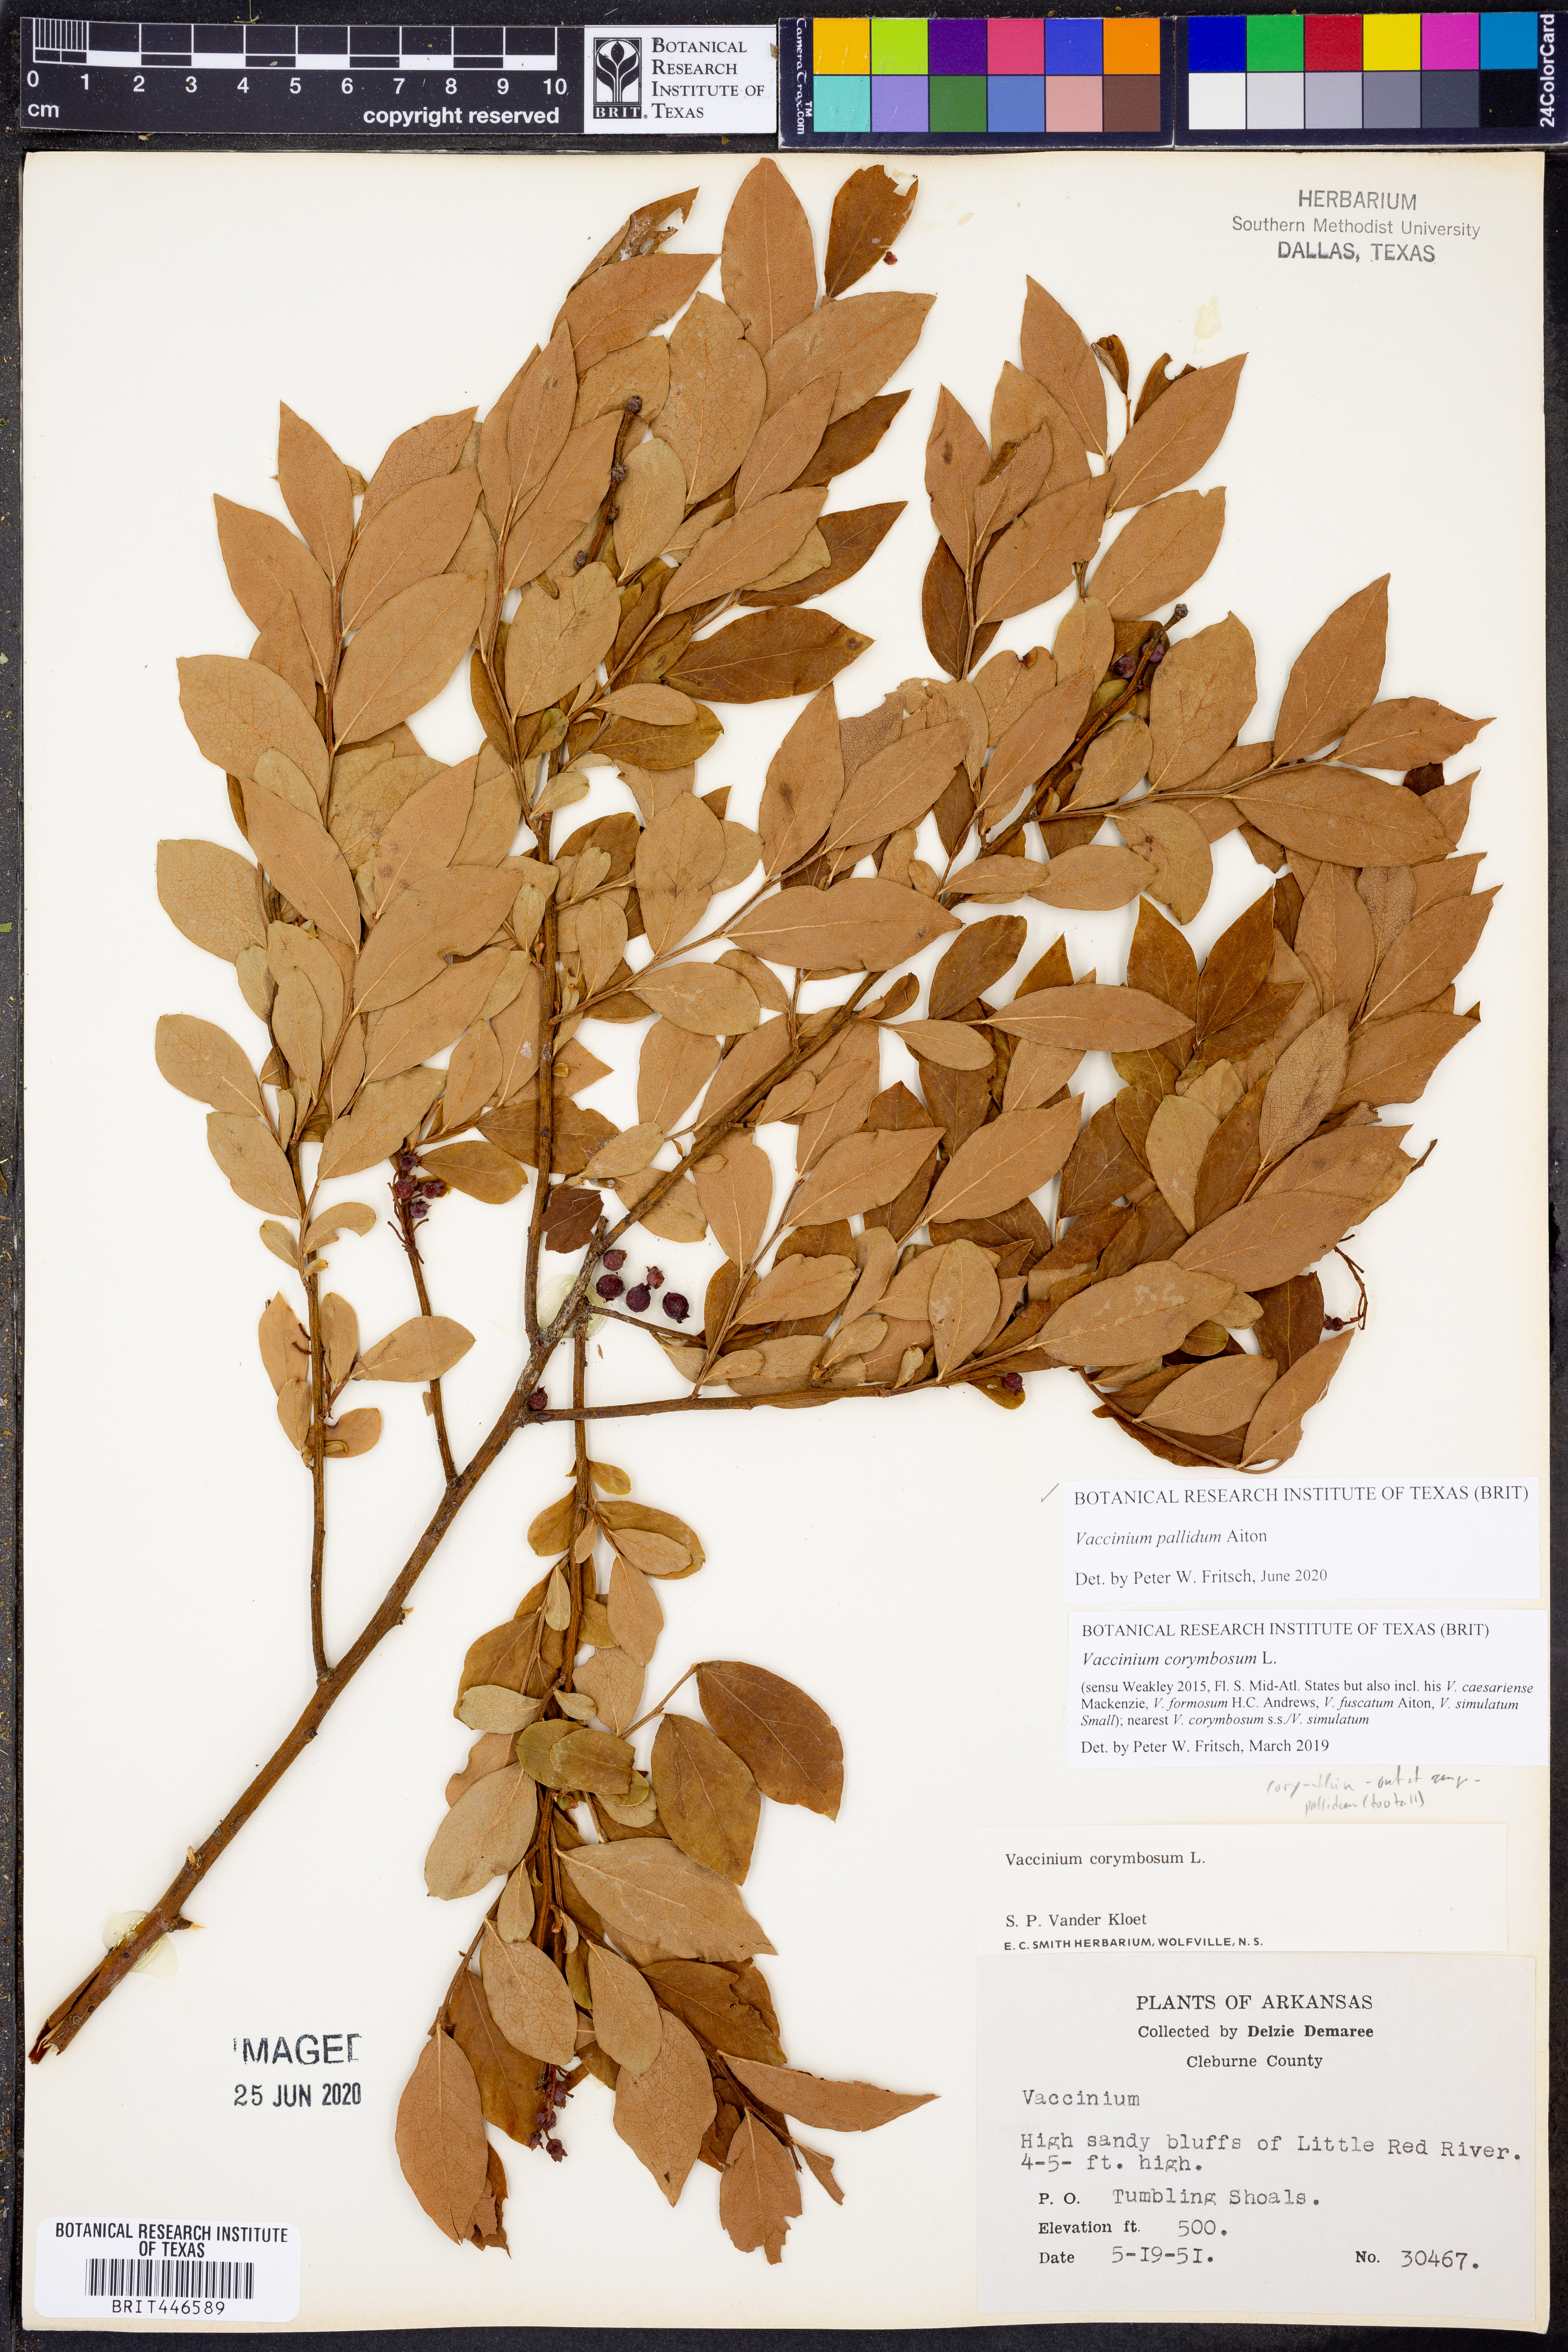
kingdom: Plantae
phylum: Tracheophyta
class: Magnoliopsida
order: Ericales
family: Ericaceae
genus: Vaccinium
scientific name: Vaccinium pallidum
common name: Blue ridge blueberry
